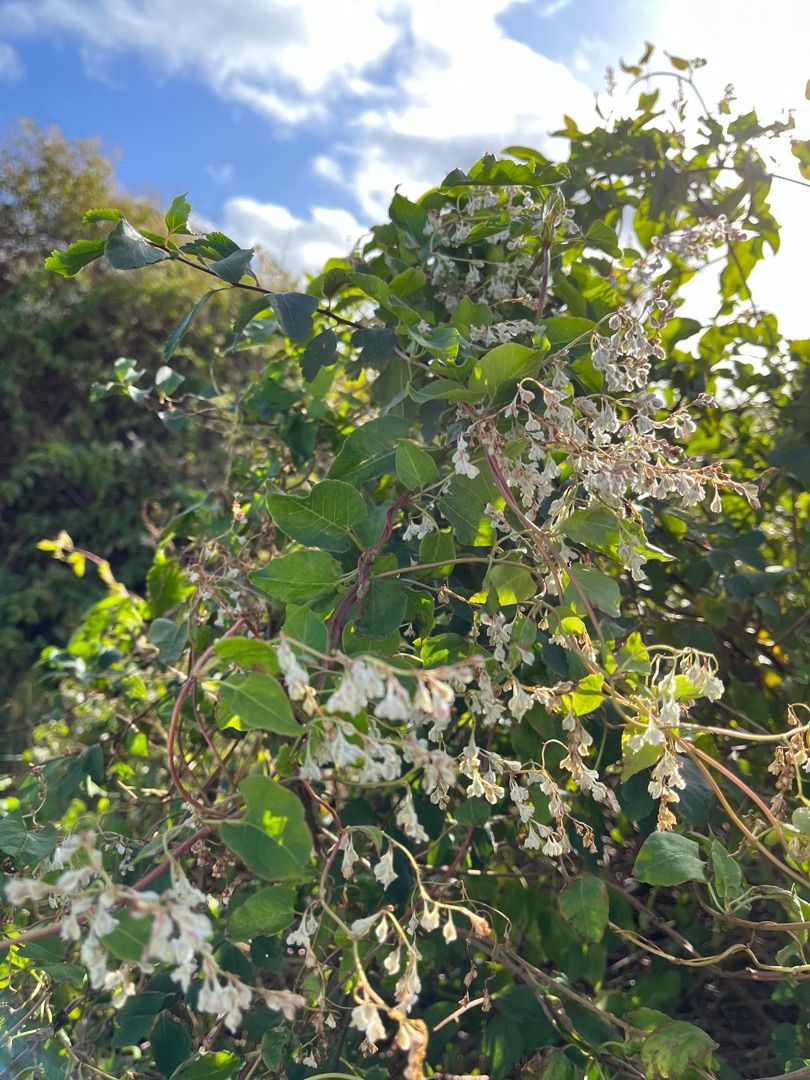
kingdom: Plantae
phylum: Tracheophyta
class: Magnoliopsida
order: Caryophyllales
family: Polygonaceae
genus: Fallopia
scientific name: Fallopia baldschuanica
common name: Sølvregn
